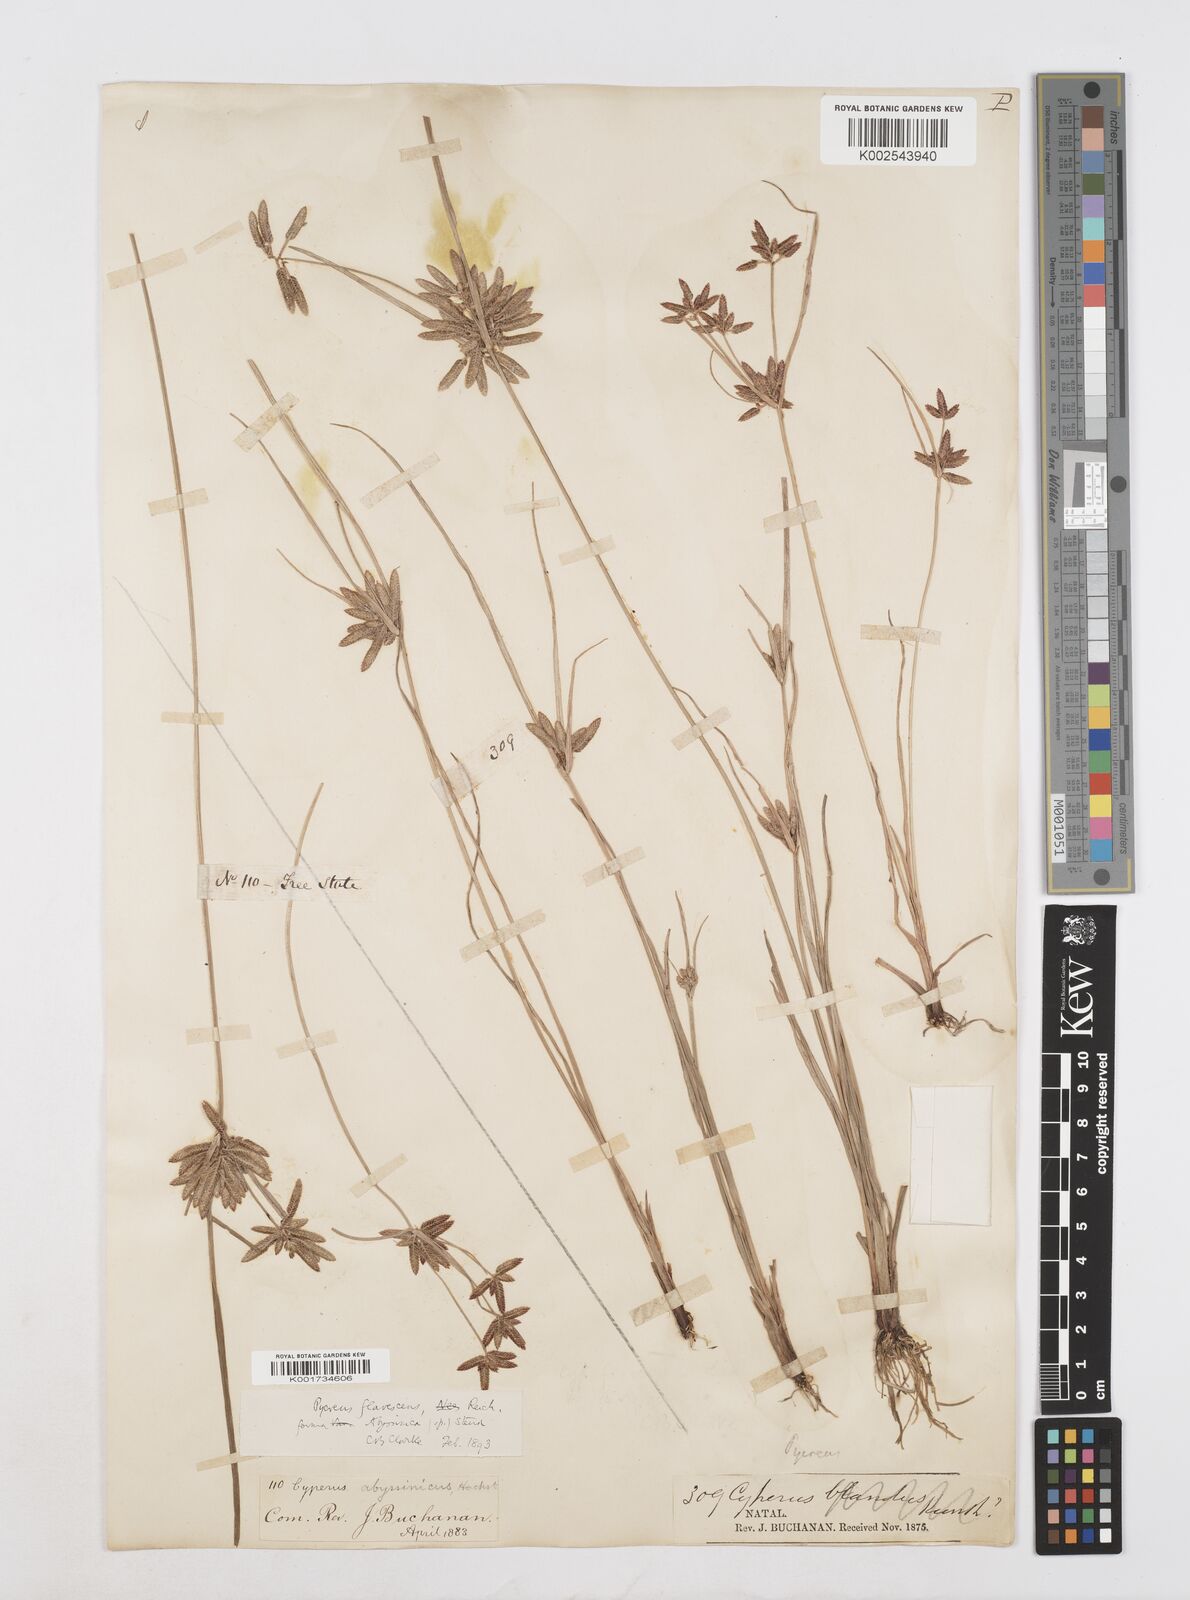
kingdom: Plantae
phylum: Tracheophyta
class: Liliopsida
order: Poales
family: Cyperaceae
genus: Cyperus
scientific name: Cyperus flavescens
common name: Yellow galingale
